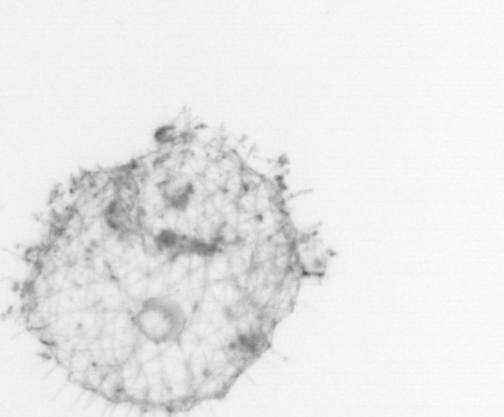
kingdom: Animalia
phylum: Chordata
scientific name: Chordata
